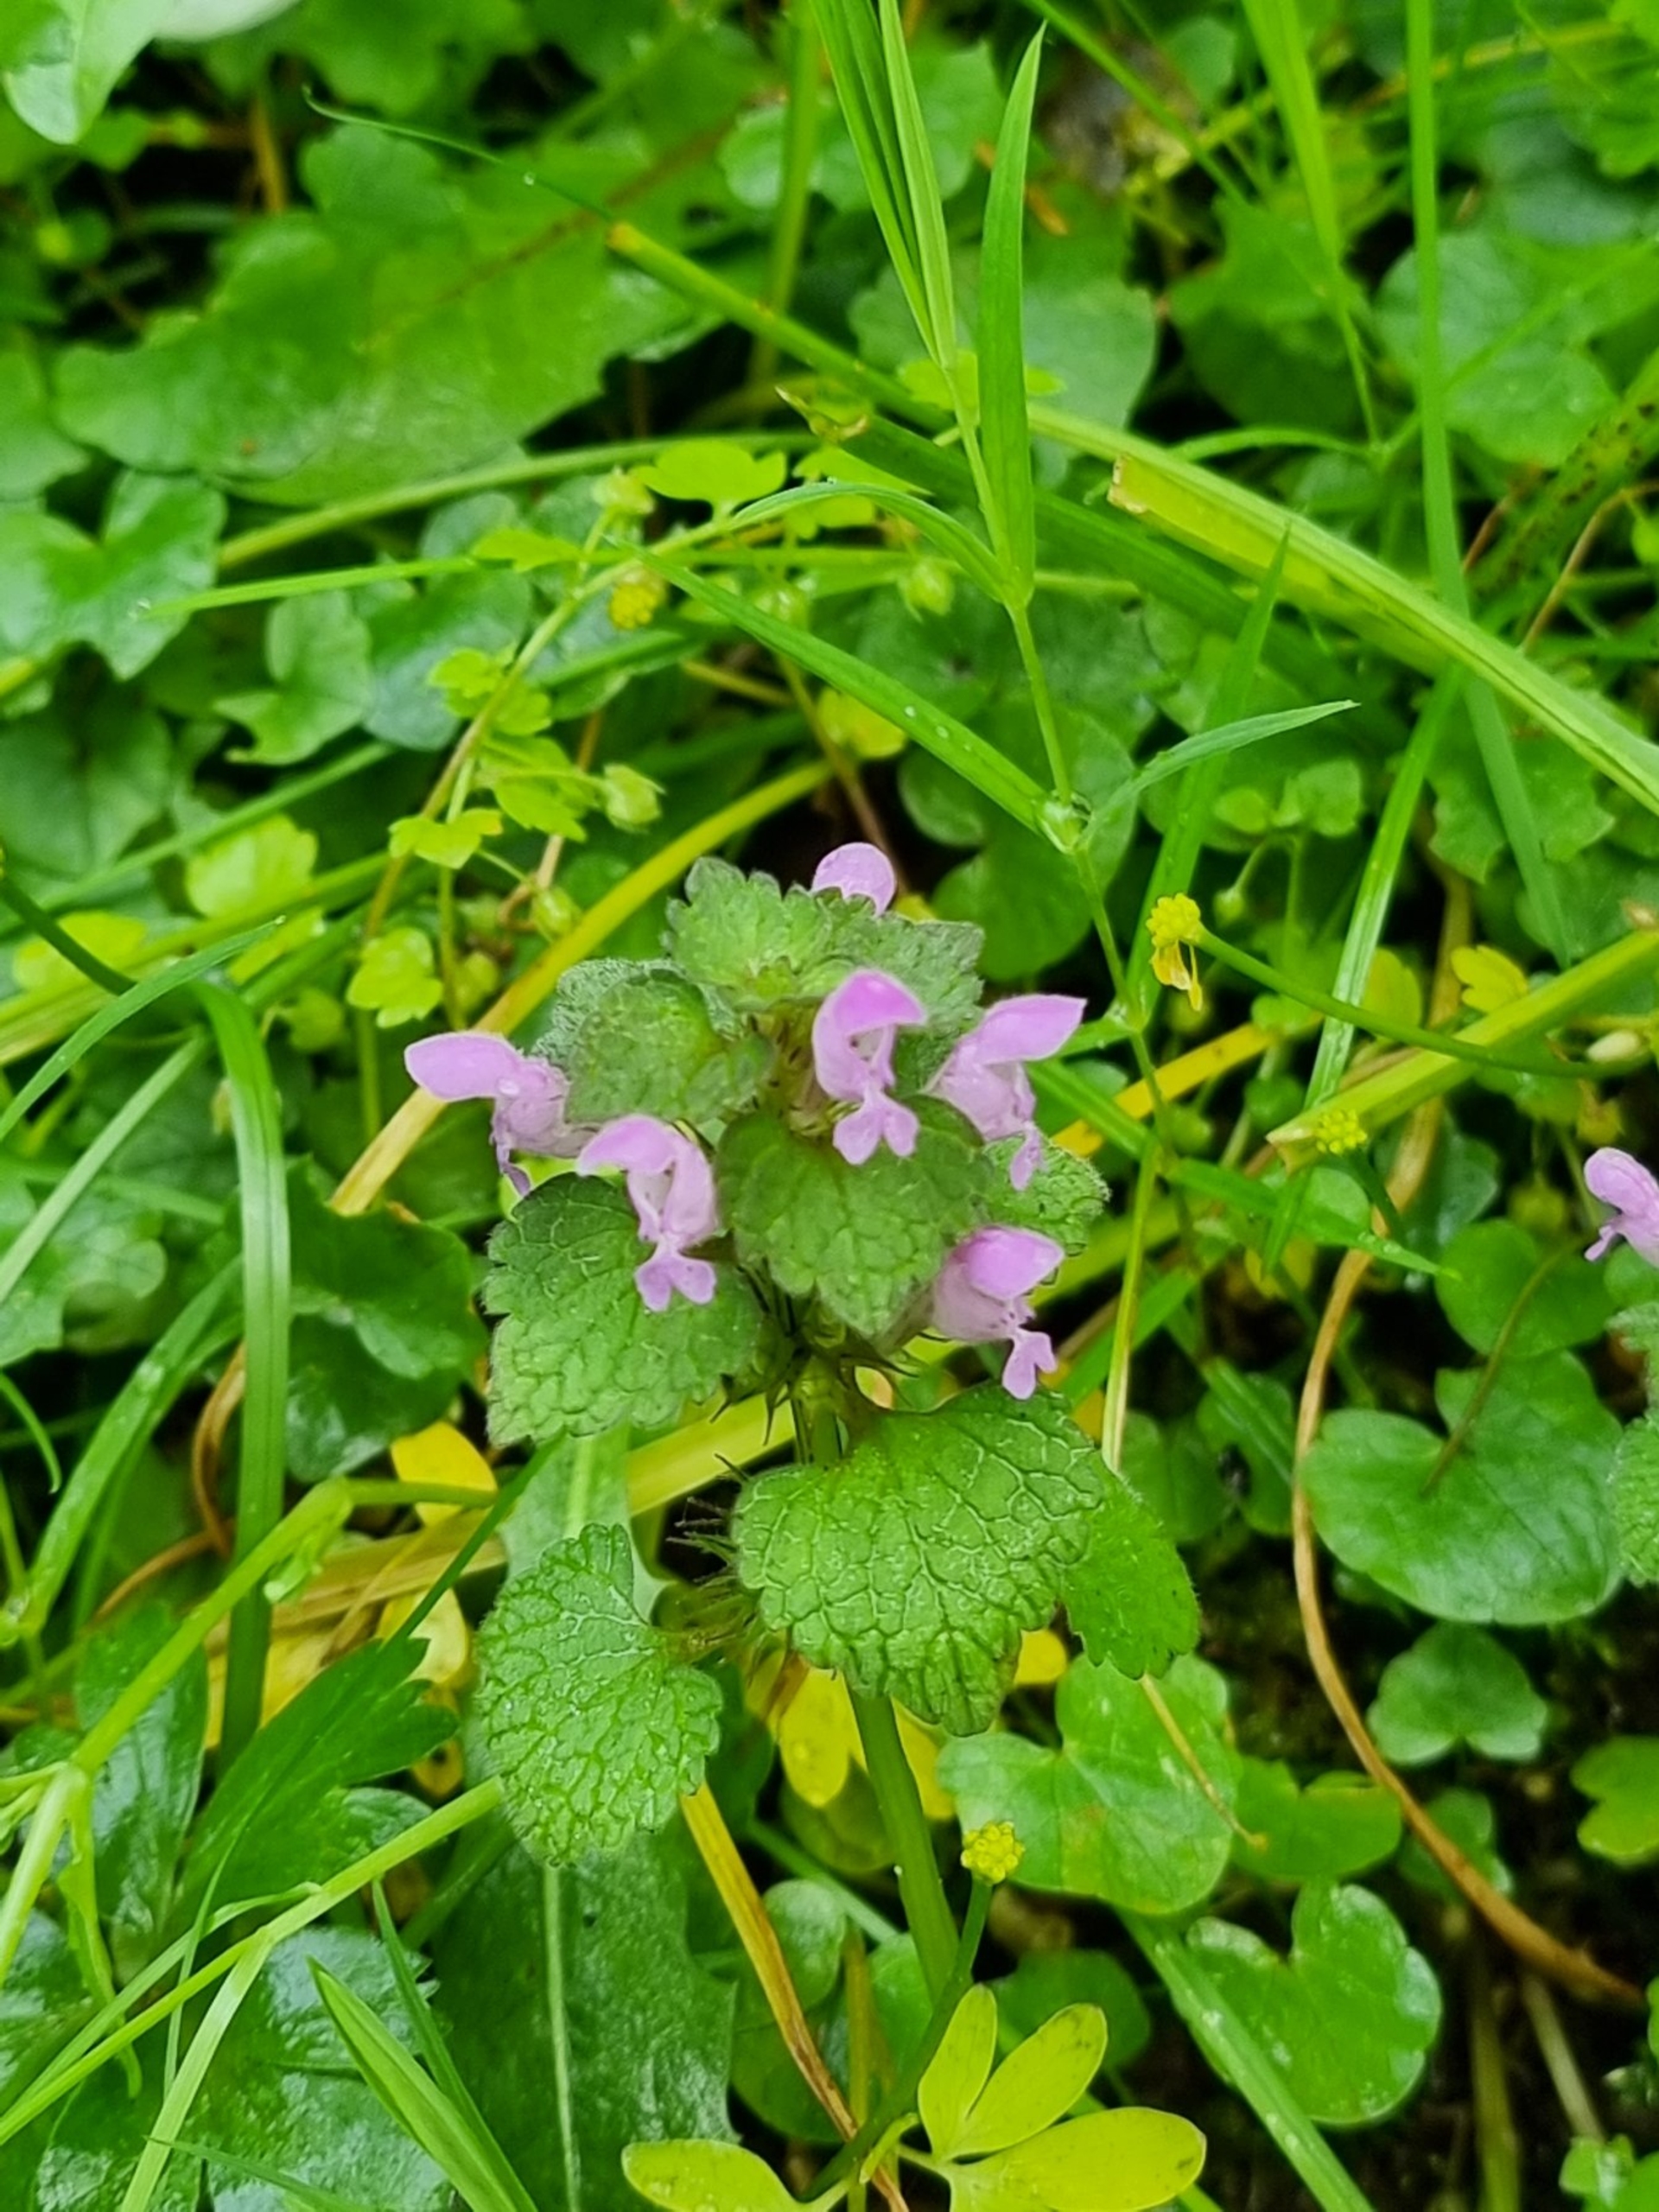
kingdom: Plantae
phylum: Tracheophyta
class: Magnoliopsida
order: Lamiales
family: Lamiaceae
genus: Lamium
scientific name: Lamium purpureum
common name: Rød tvetand
